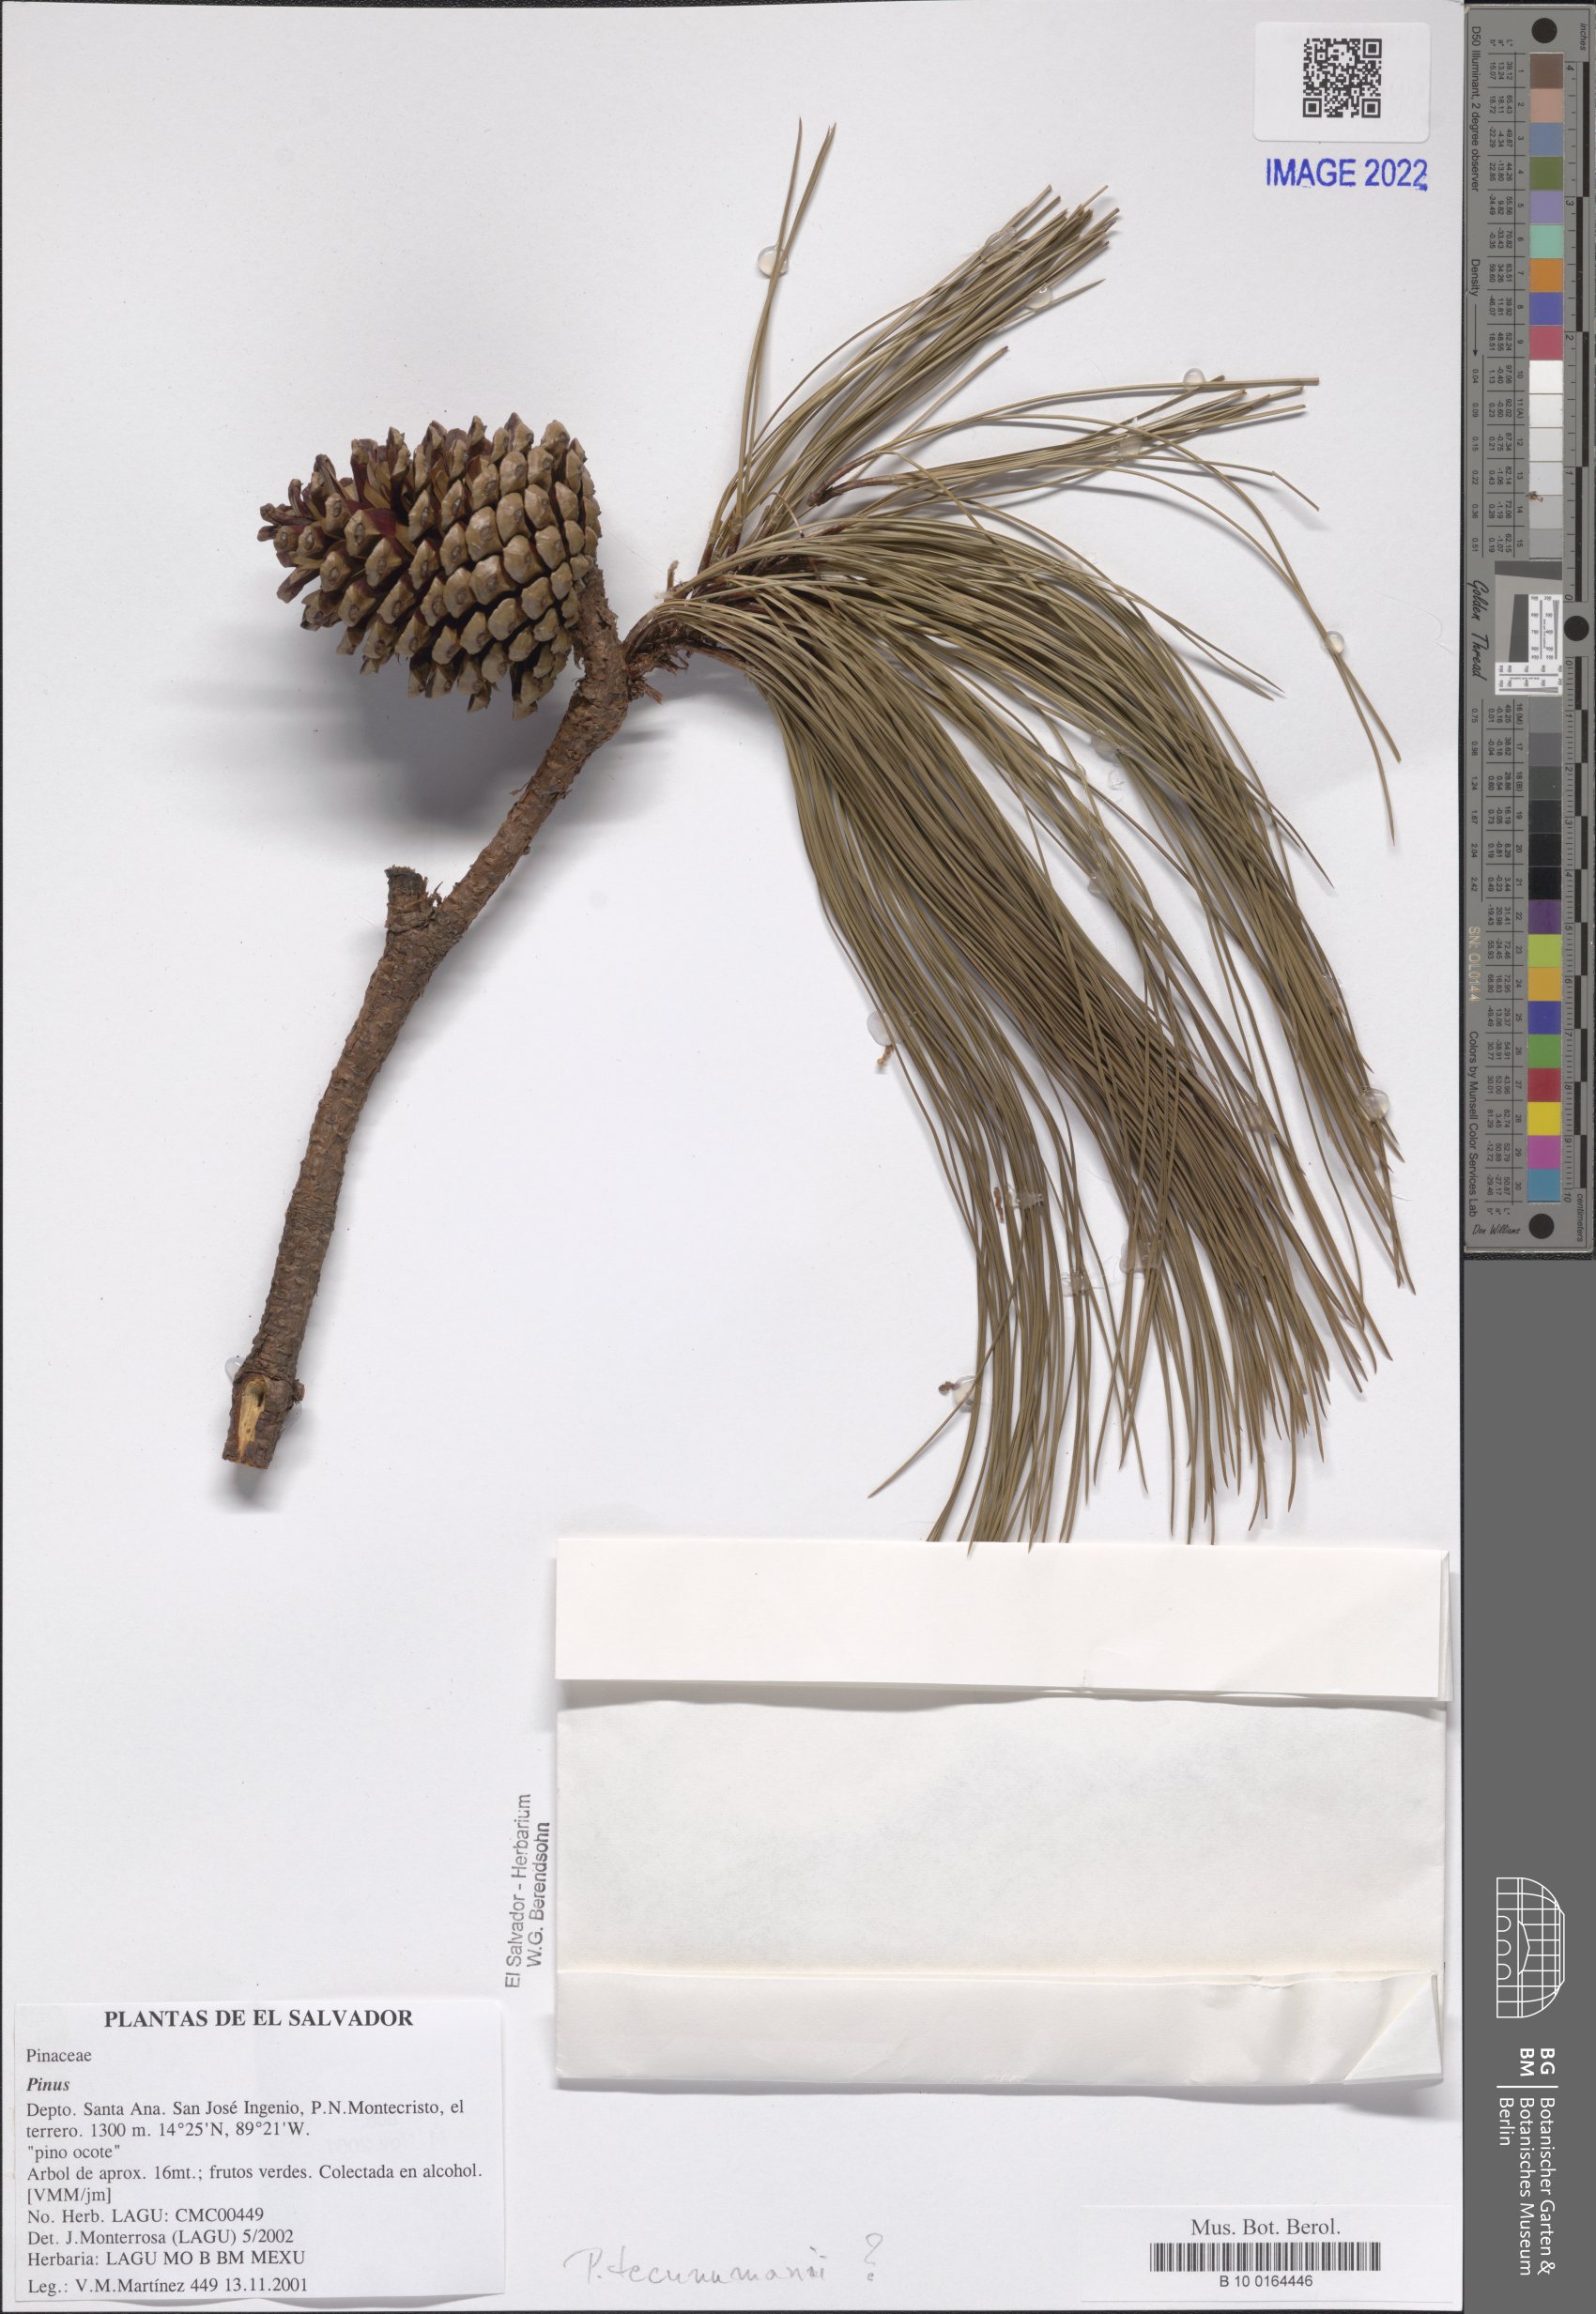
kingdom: Plantae
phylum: Tracheophyta
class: Pinopsida
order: Pinales
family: Pinaceae
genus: Pinus
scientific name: Pinus
